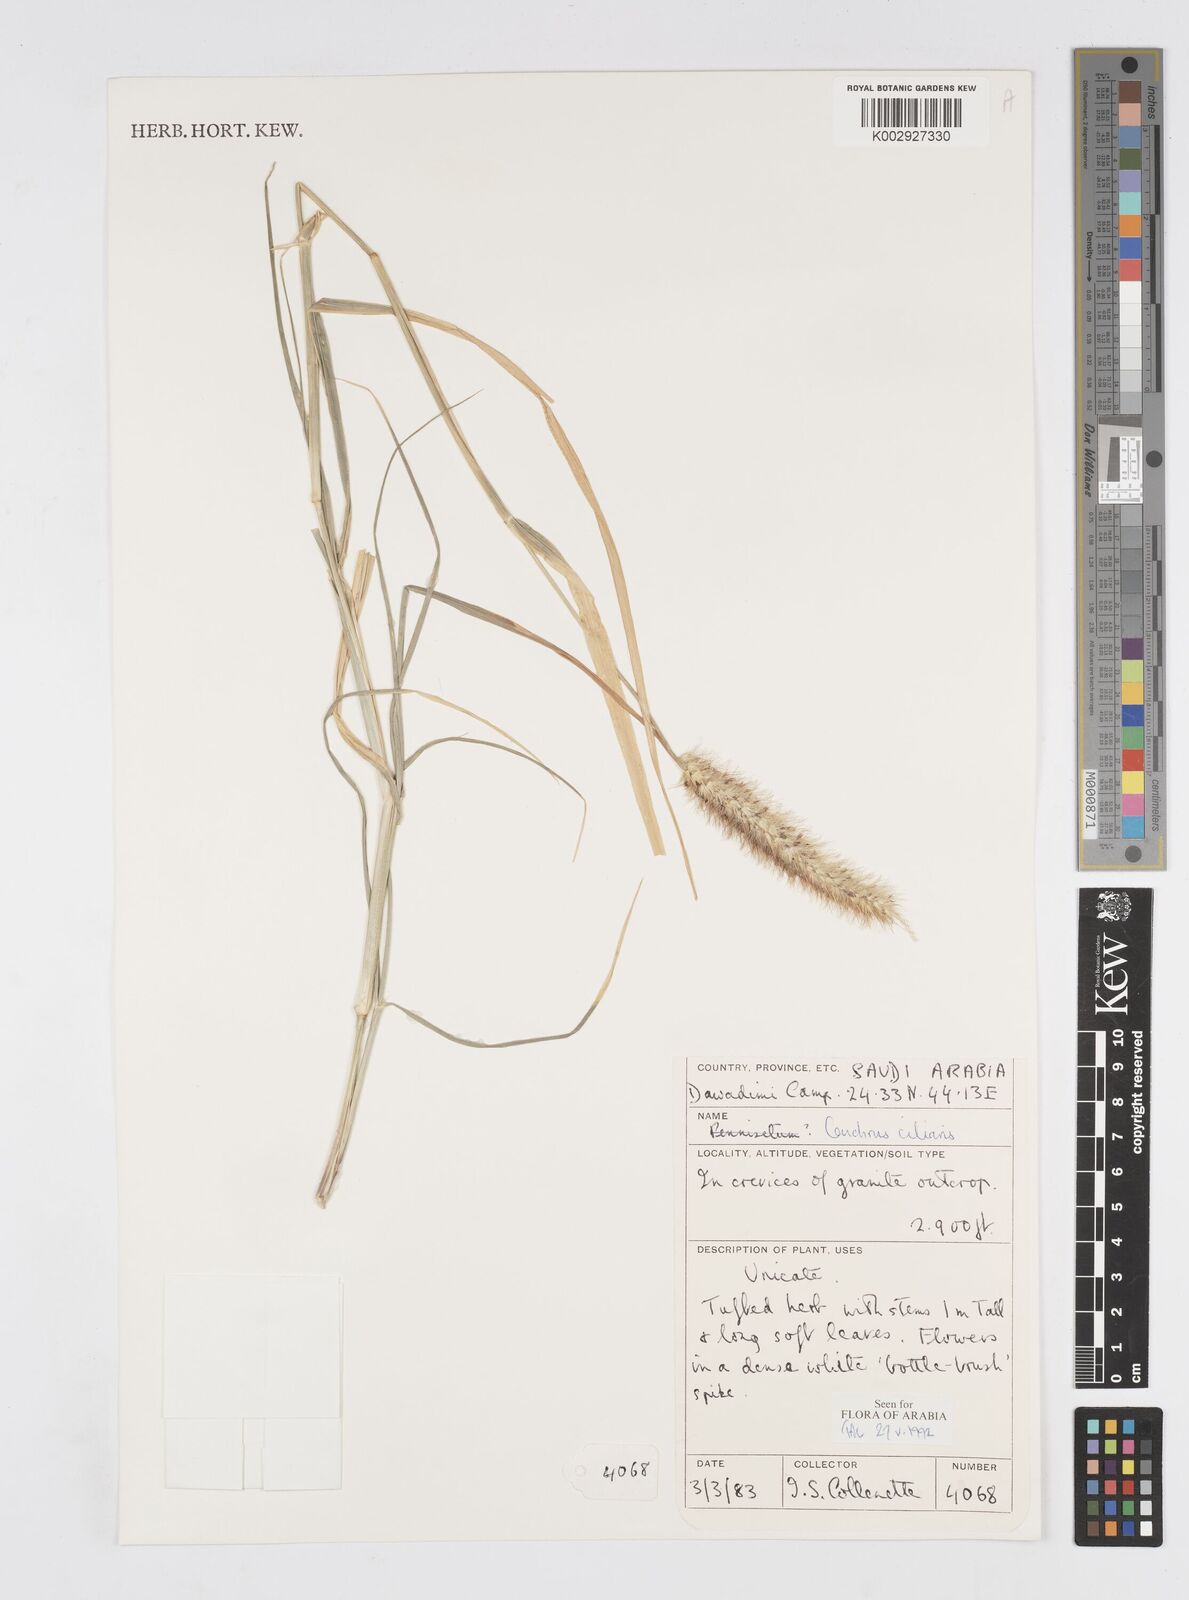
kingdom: Plantae
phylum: Tracheophyta
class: Liliopsida
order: Poales
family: Poaceae
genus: Cenchrus
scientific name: Cenchrus ciliaris
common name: Buffelgrass
